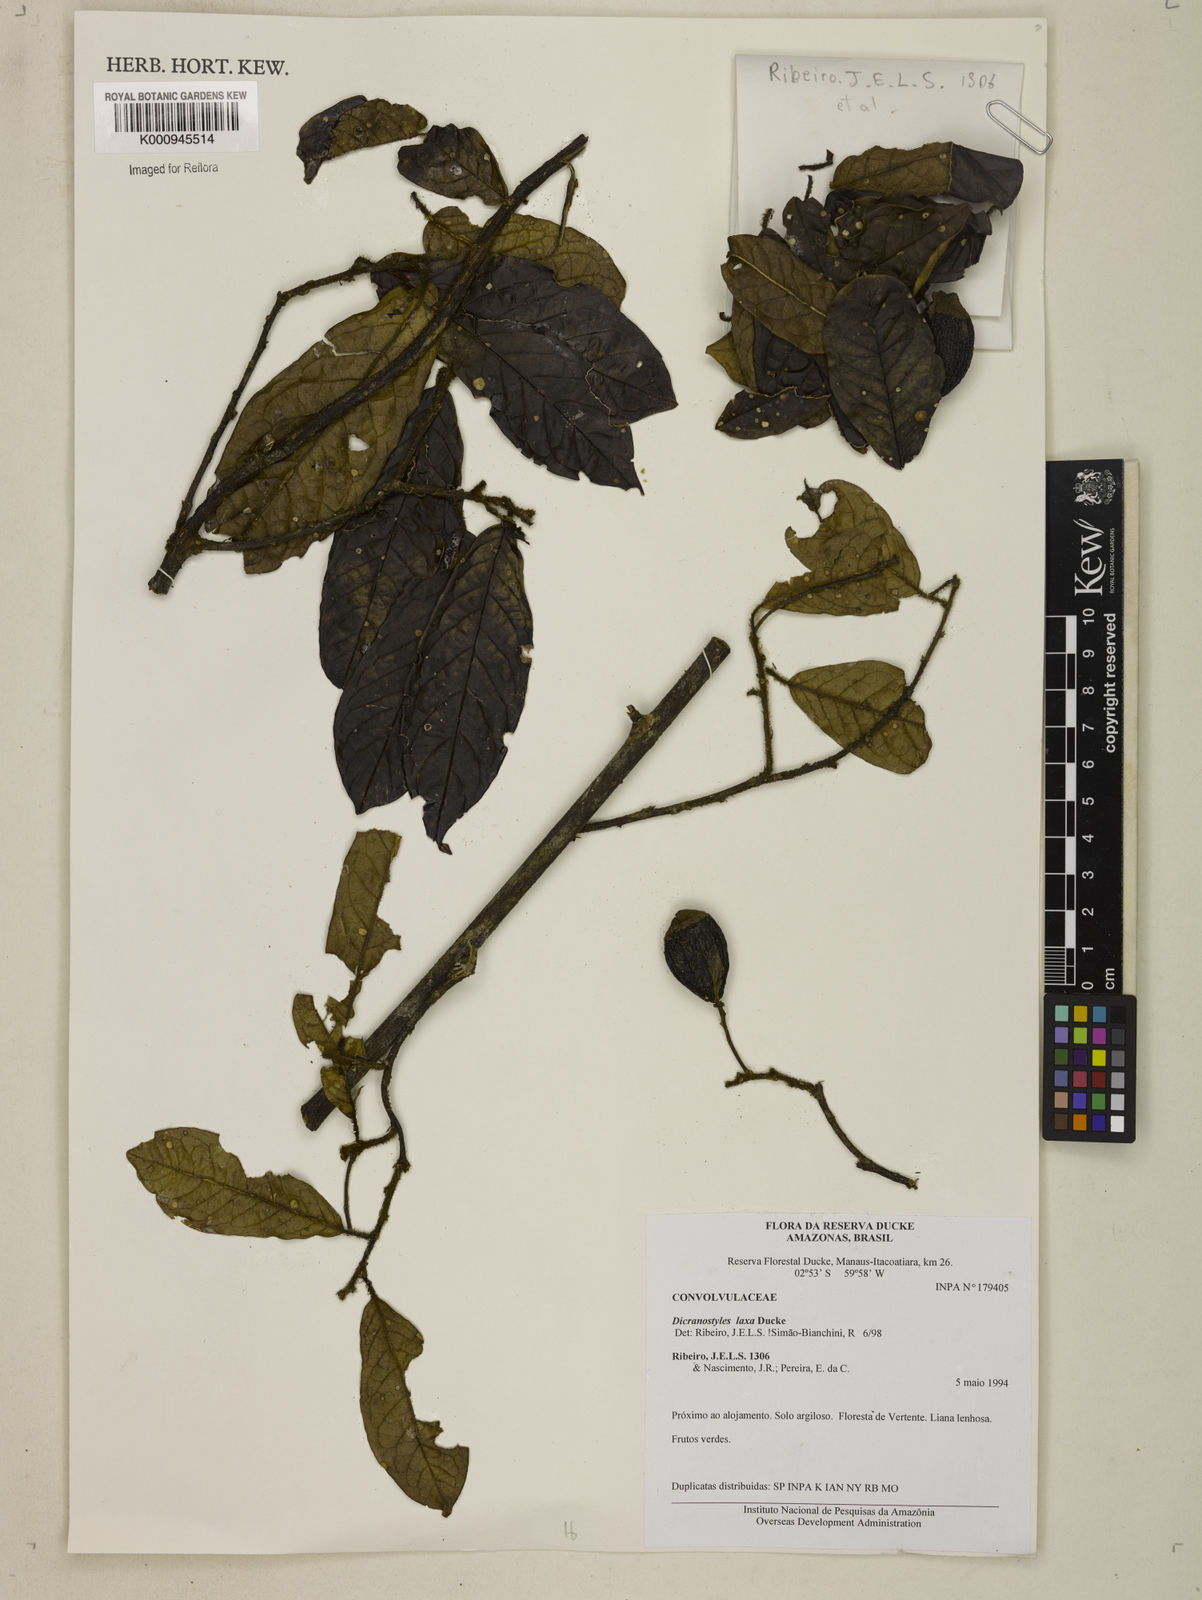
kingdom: Plantae
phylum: Tracheophyta
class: Magnoliopsida
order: Solanales
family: Convolvulaceae
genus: Dicranostyles
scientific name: Dicranostyles laxa
